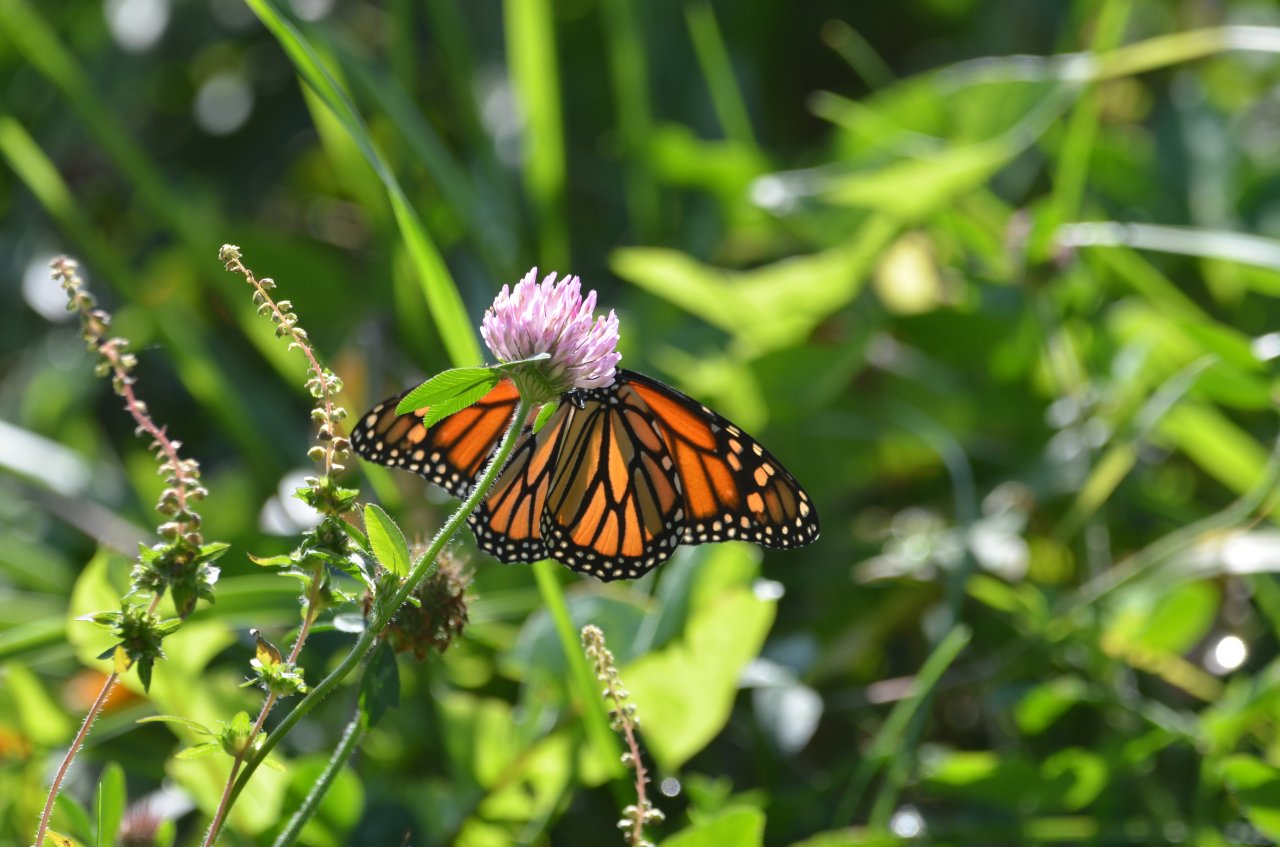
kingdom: Animalia
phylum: Arthropoda
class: Insecta
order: Lepidoptera
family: Nymphalidae
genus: Danaus
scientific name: Danaus plexippus
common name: Monarch
